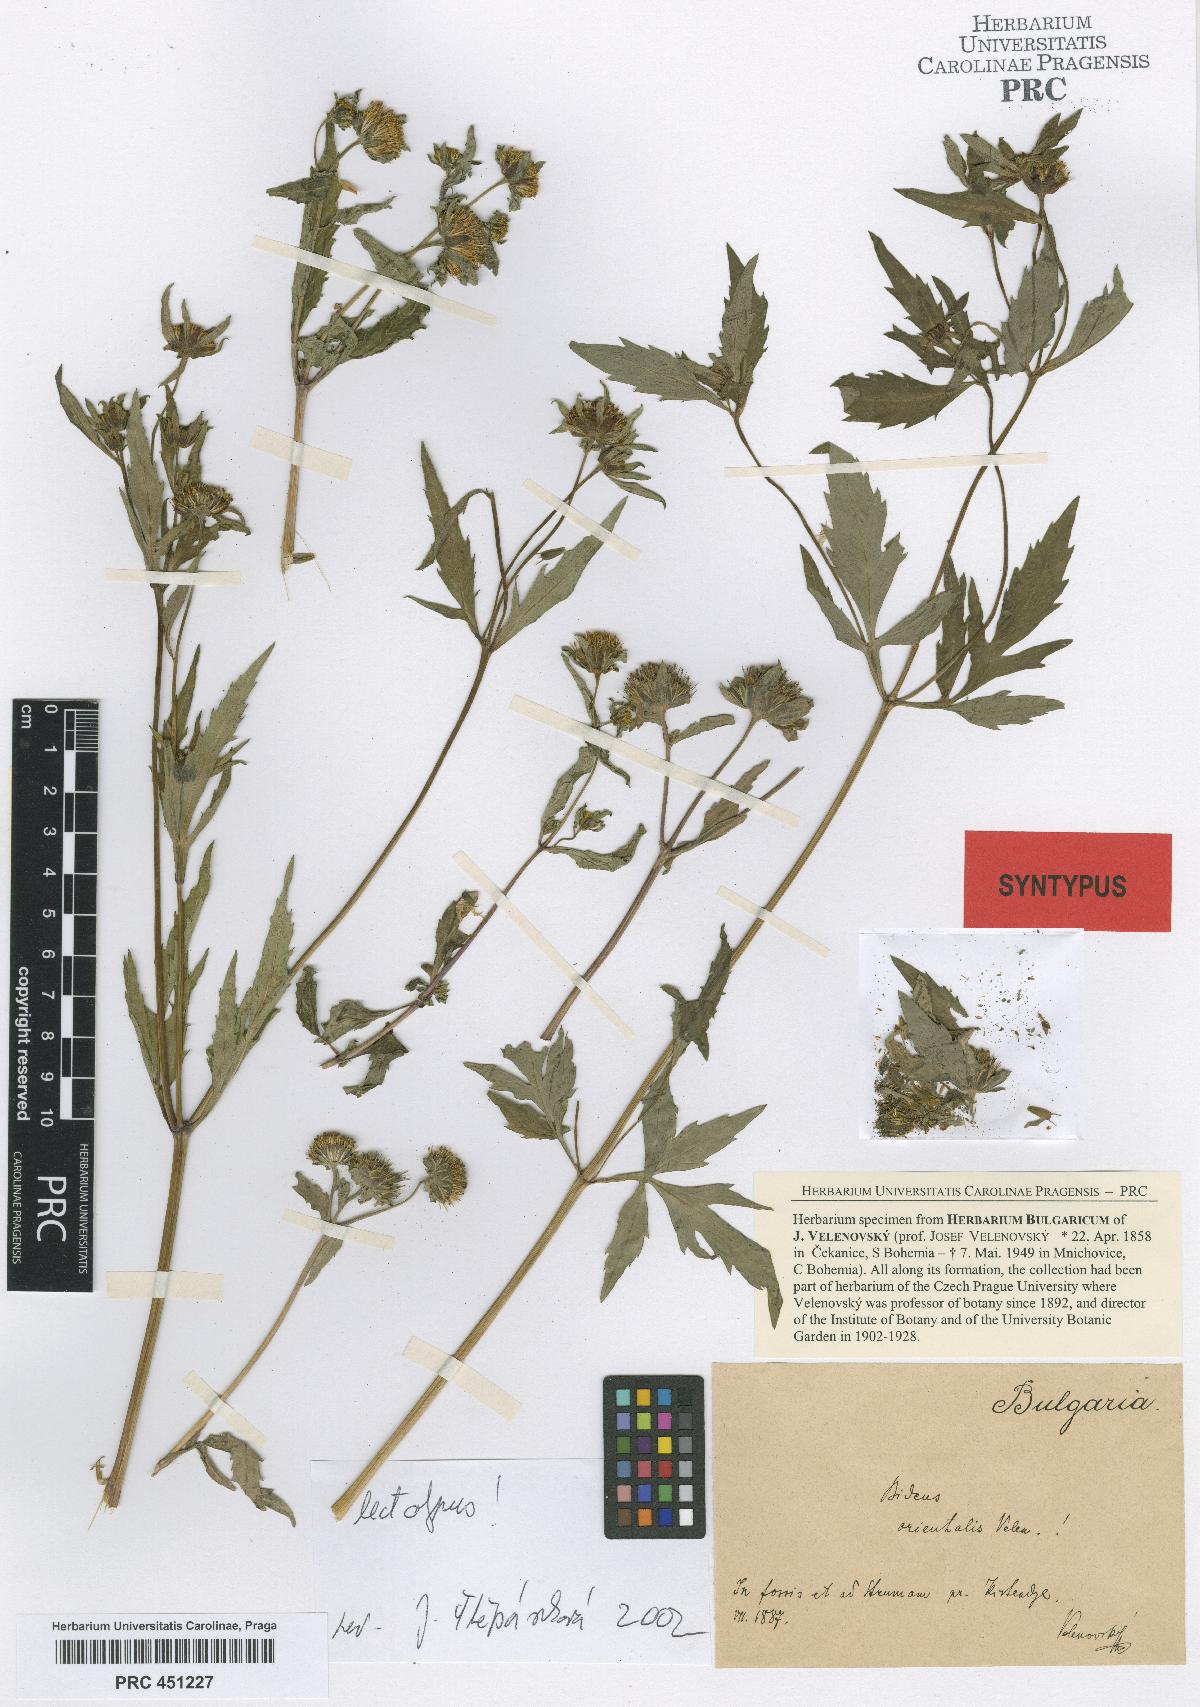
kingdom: Plantae
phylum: Tracheophyta
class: Magnoliopsida
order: Asterales
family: Asteraceae
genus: Bidens
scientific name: Bidens tripartita
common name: Trifid bur-marigold
